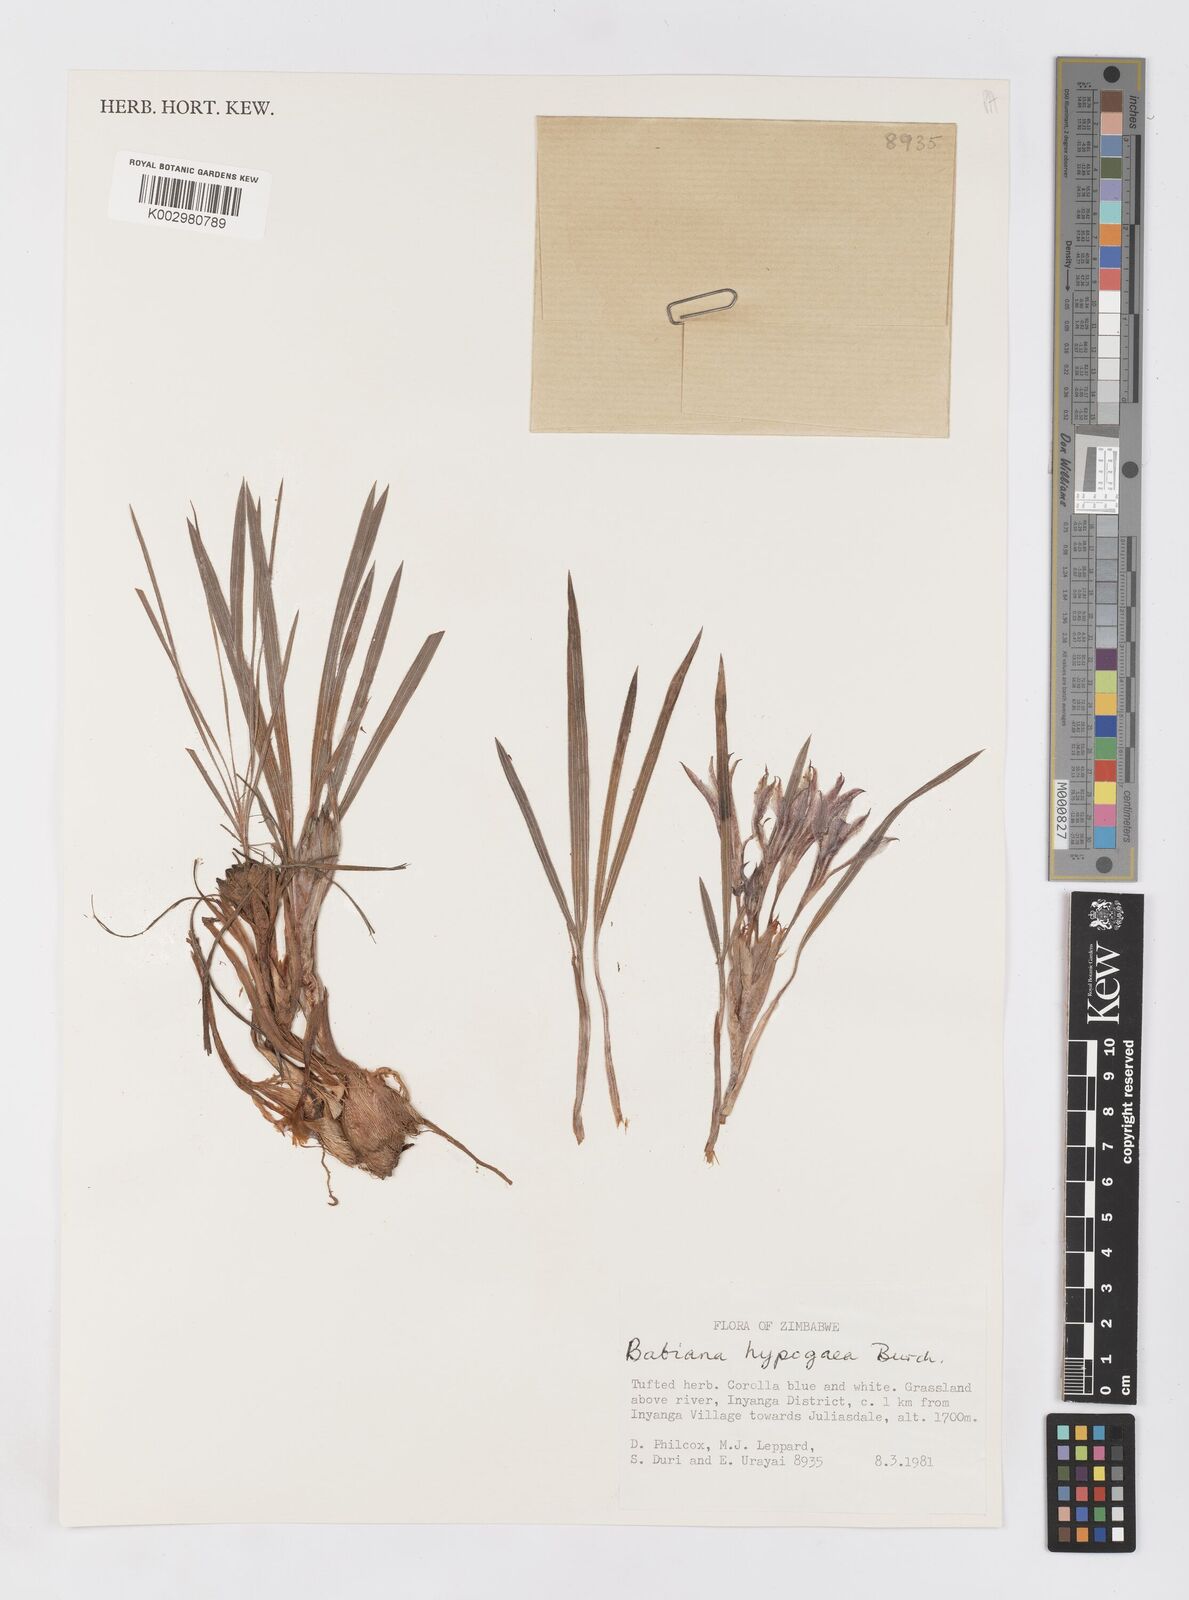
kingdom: Plantae
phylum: Tracheophyta
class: Liliopsida
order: Asparagales
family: Iridaceae
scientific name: Iridaceae
